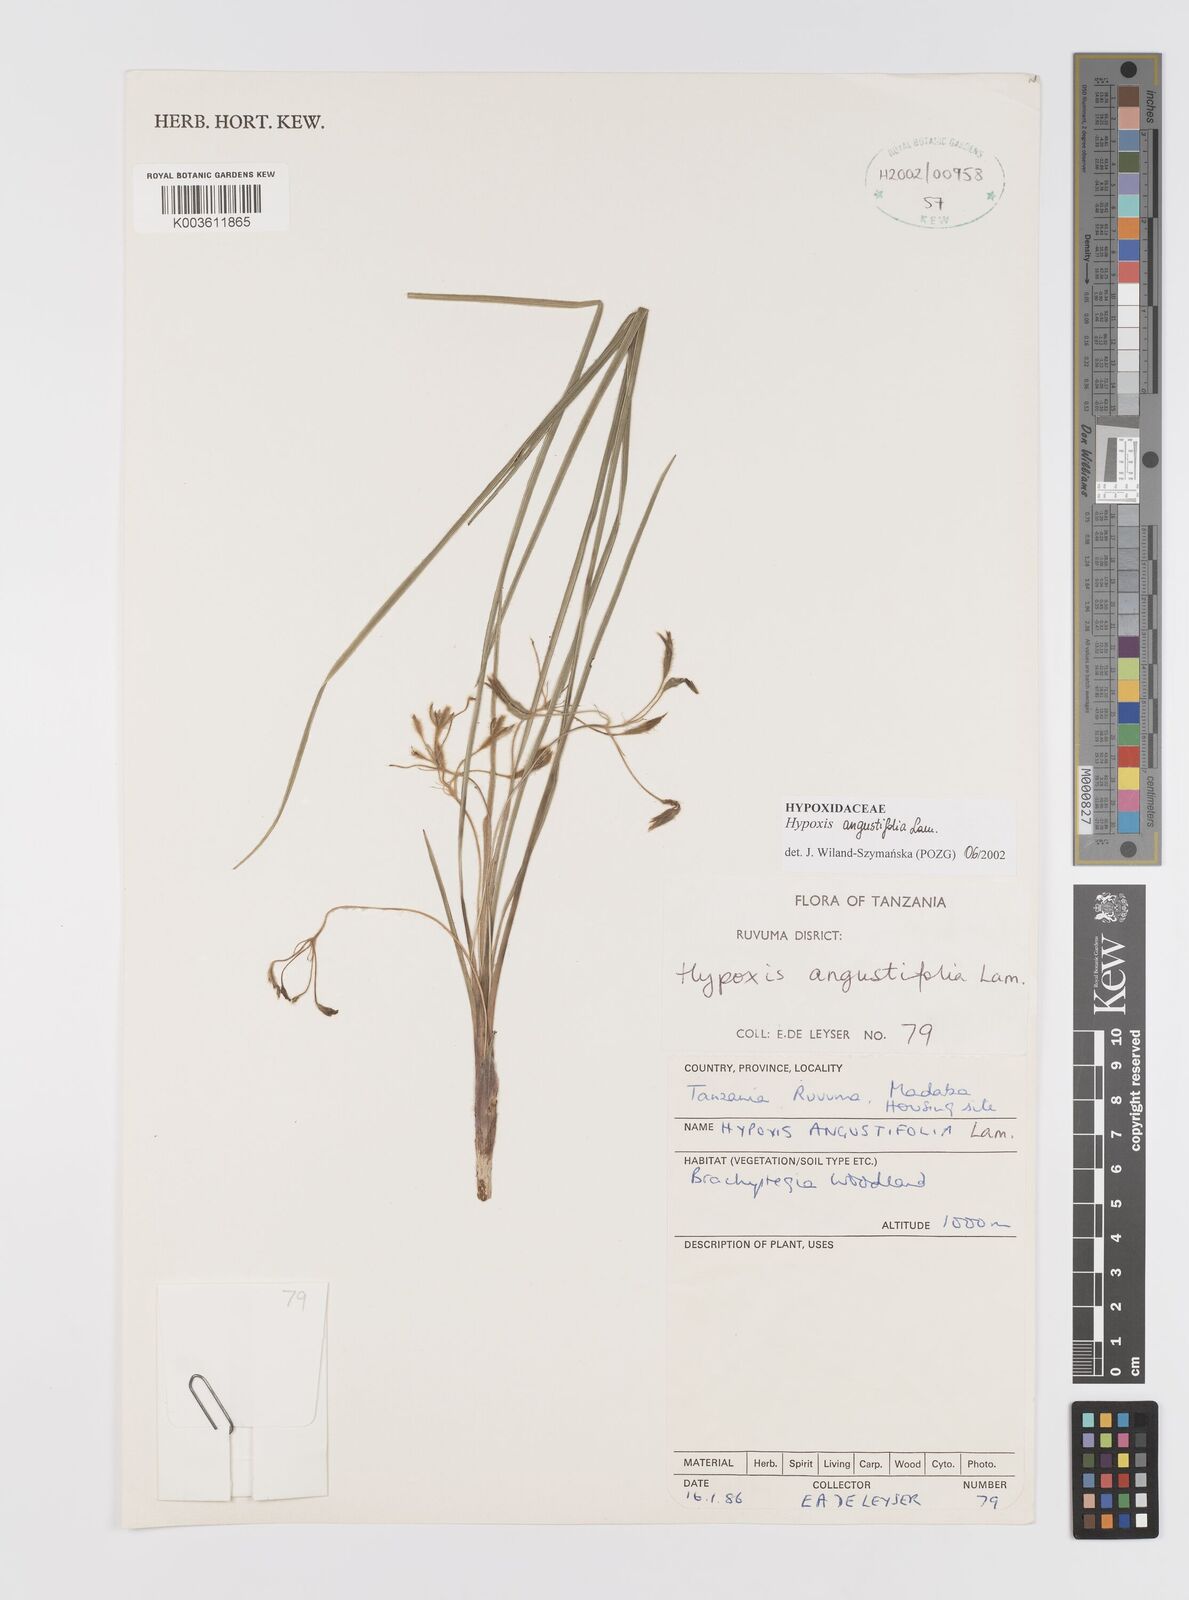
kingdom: Plantae
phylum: Tracheophyta
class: Liliopsida
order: Asparagales
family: Hypoxidaceae
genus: Hypoxis
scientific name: Hypoxis angustifolia
